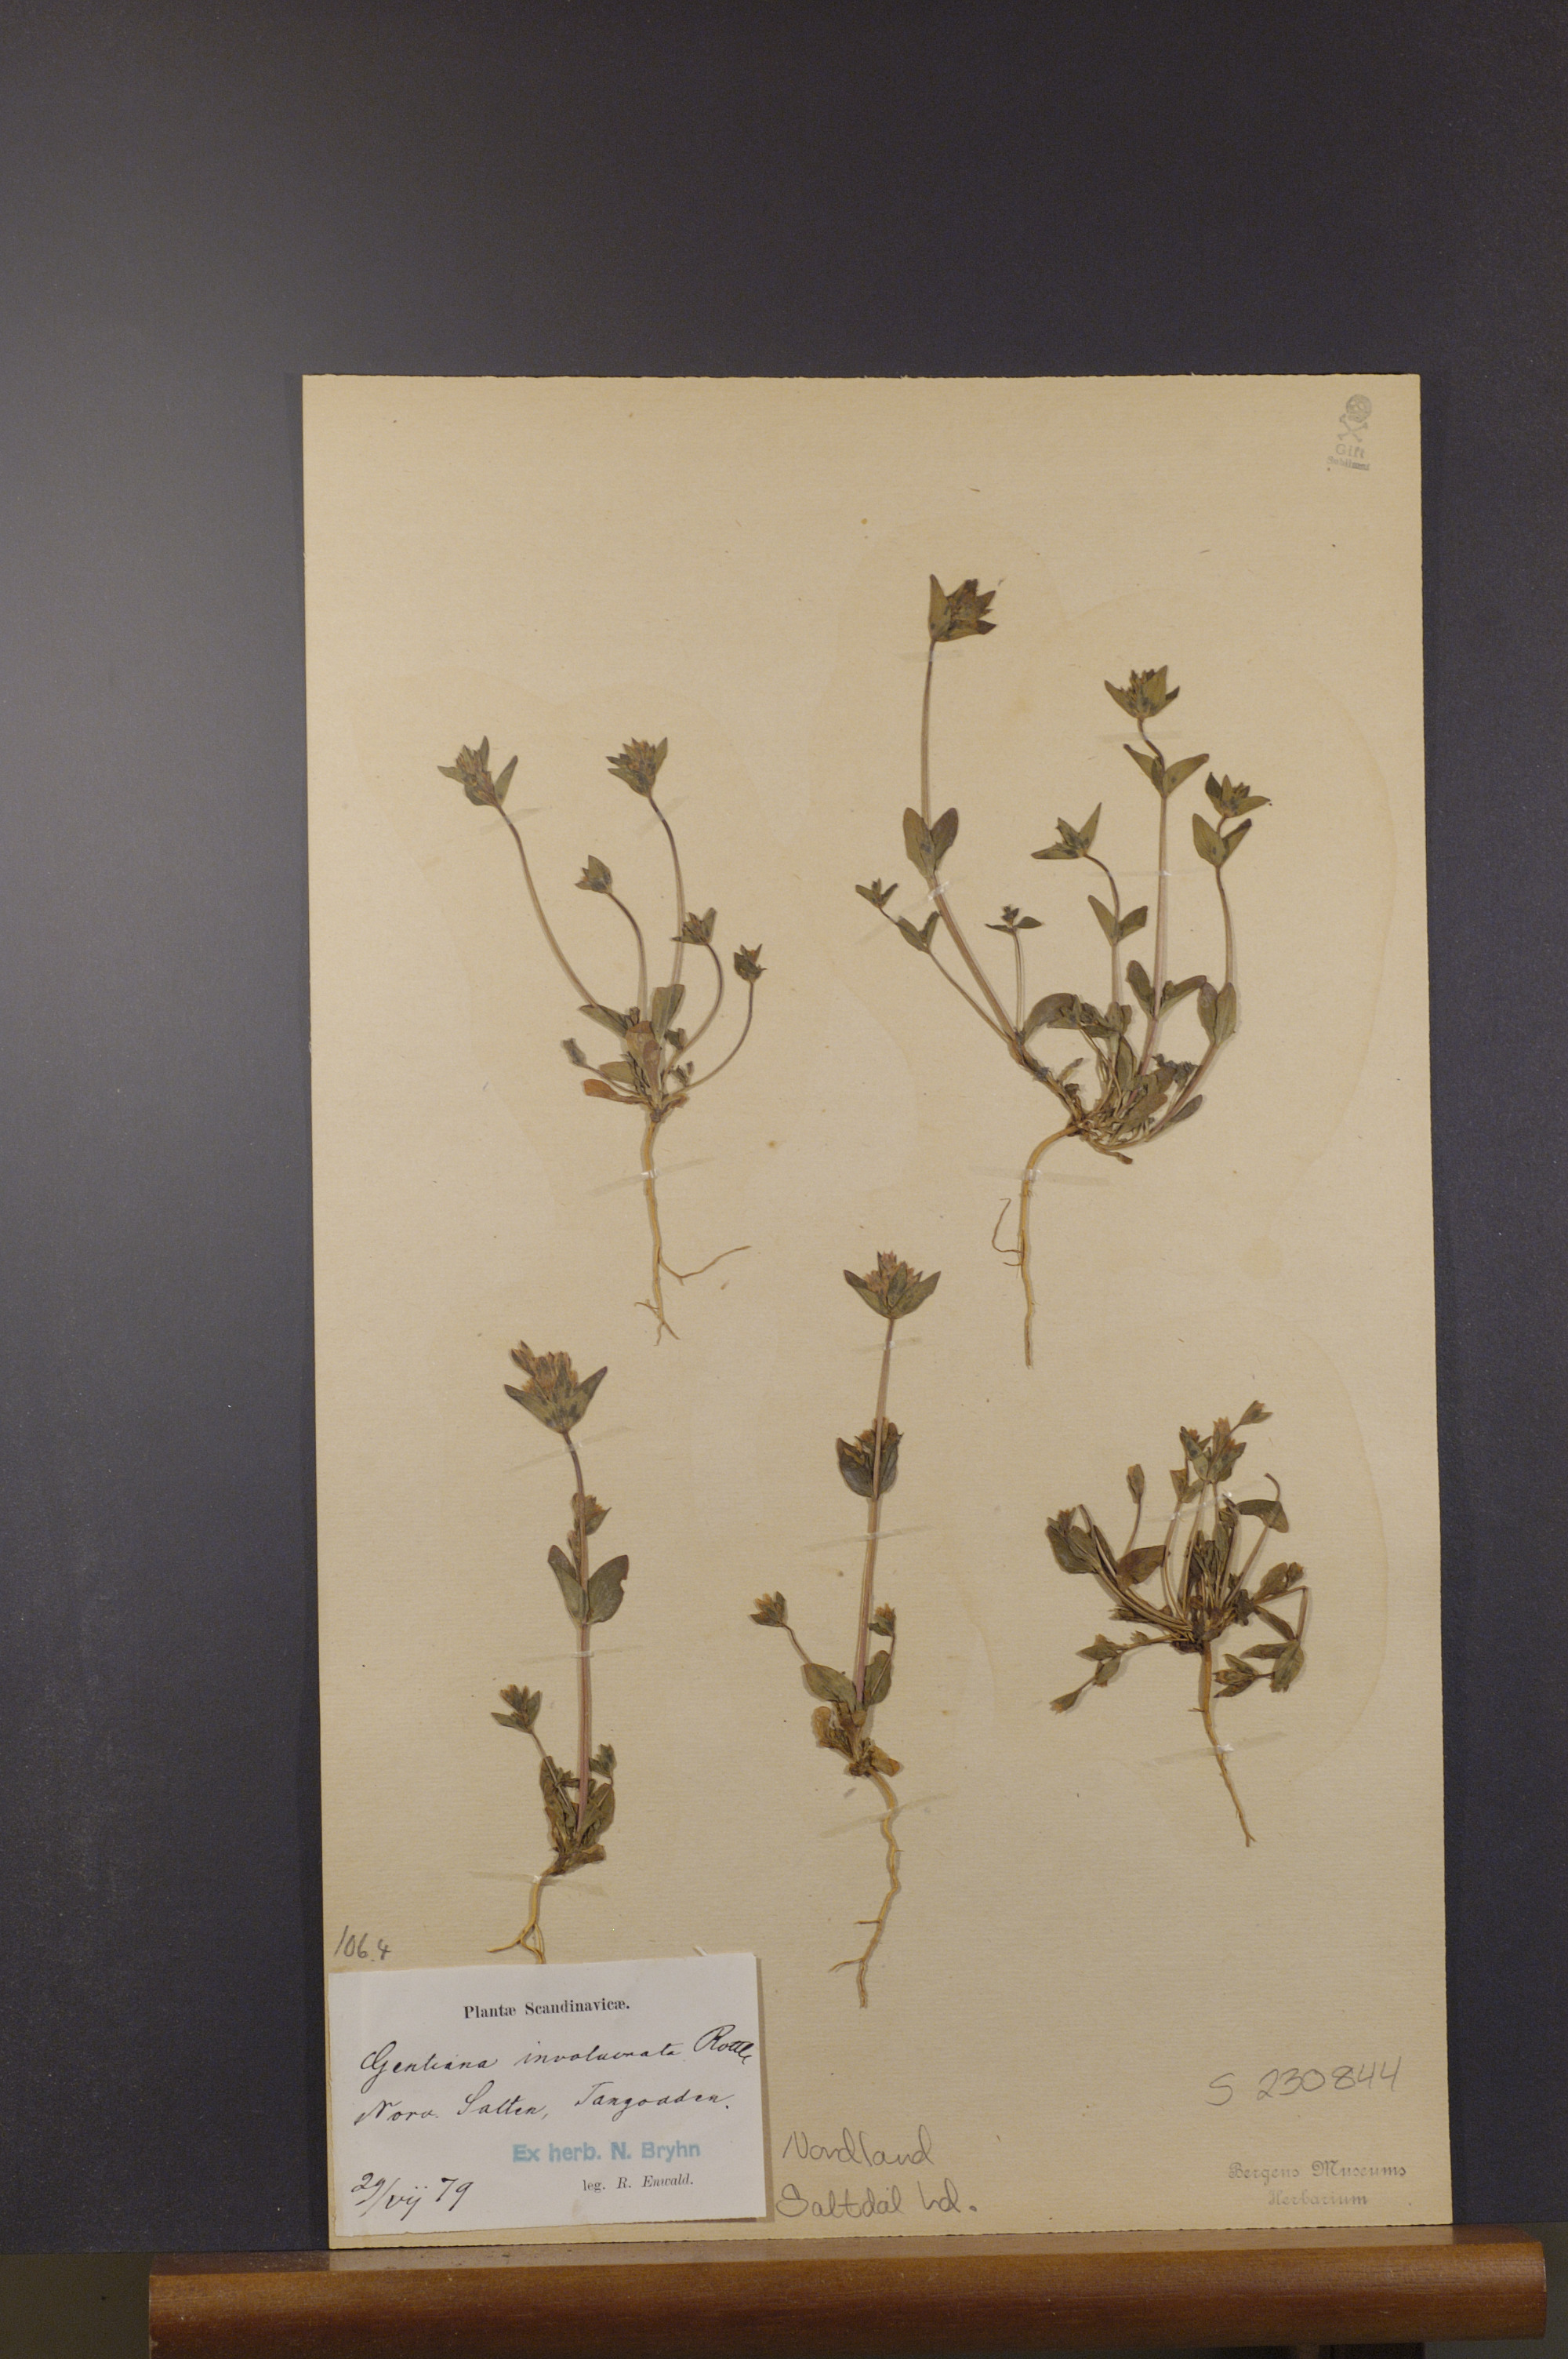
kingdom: Plantae
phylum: Tracheophyta
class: Magnoliopsida
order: Gentianales
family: Gentianaceae
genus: Gentianella
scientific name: Gentianella aurea
